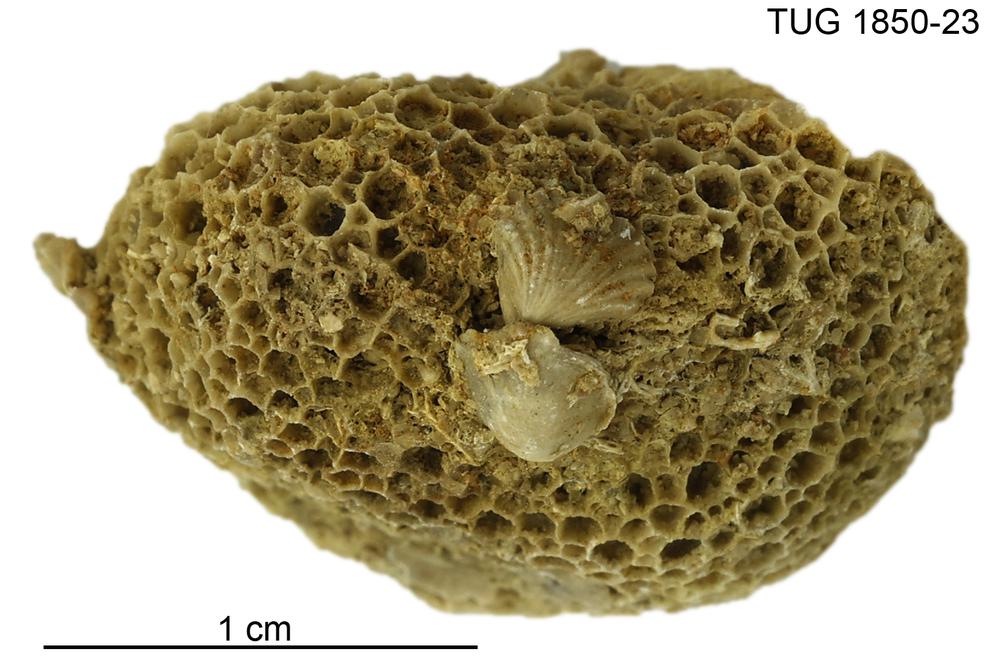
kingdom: Animalia
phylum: Cnidaria
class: Anthozoa
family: Favositidae
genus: Favosites
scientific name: Favosites
